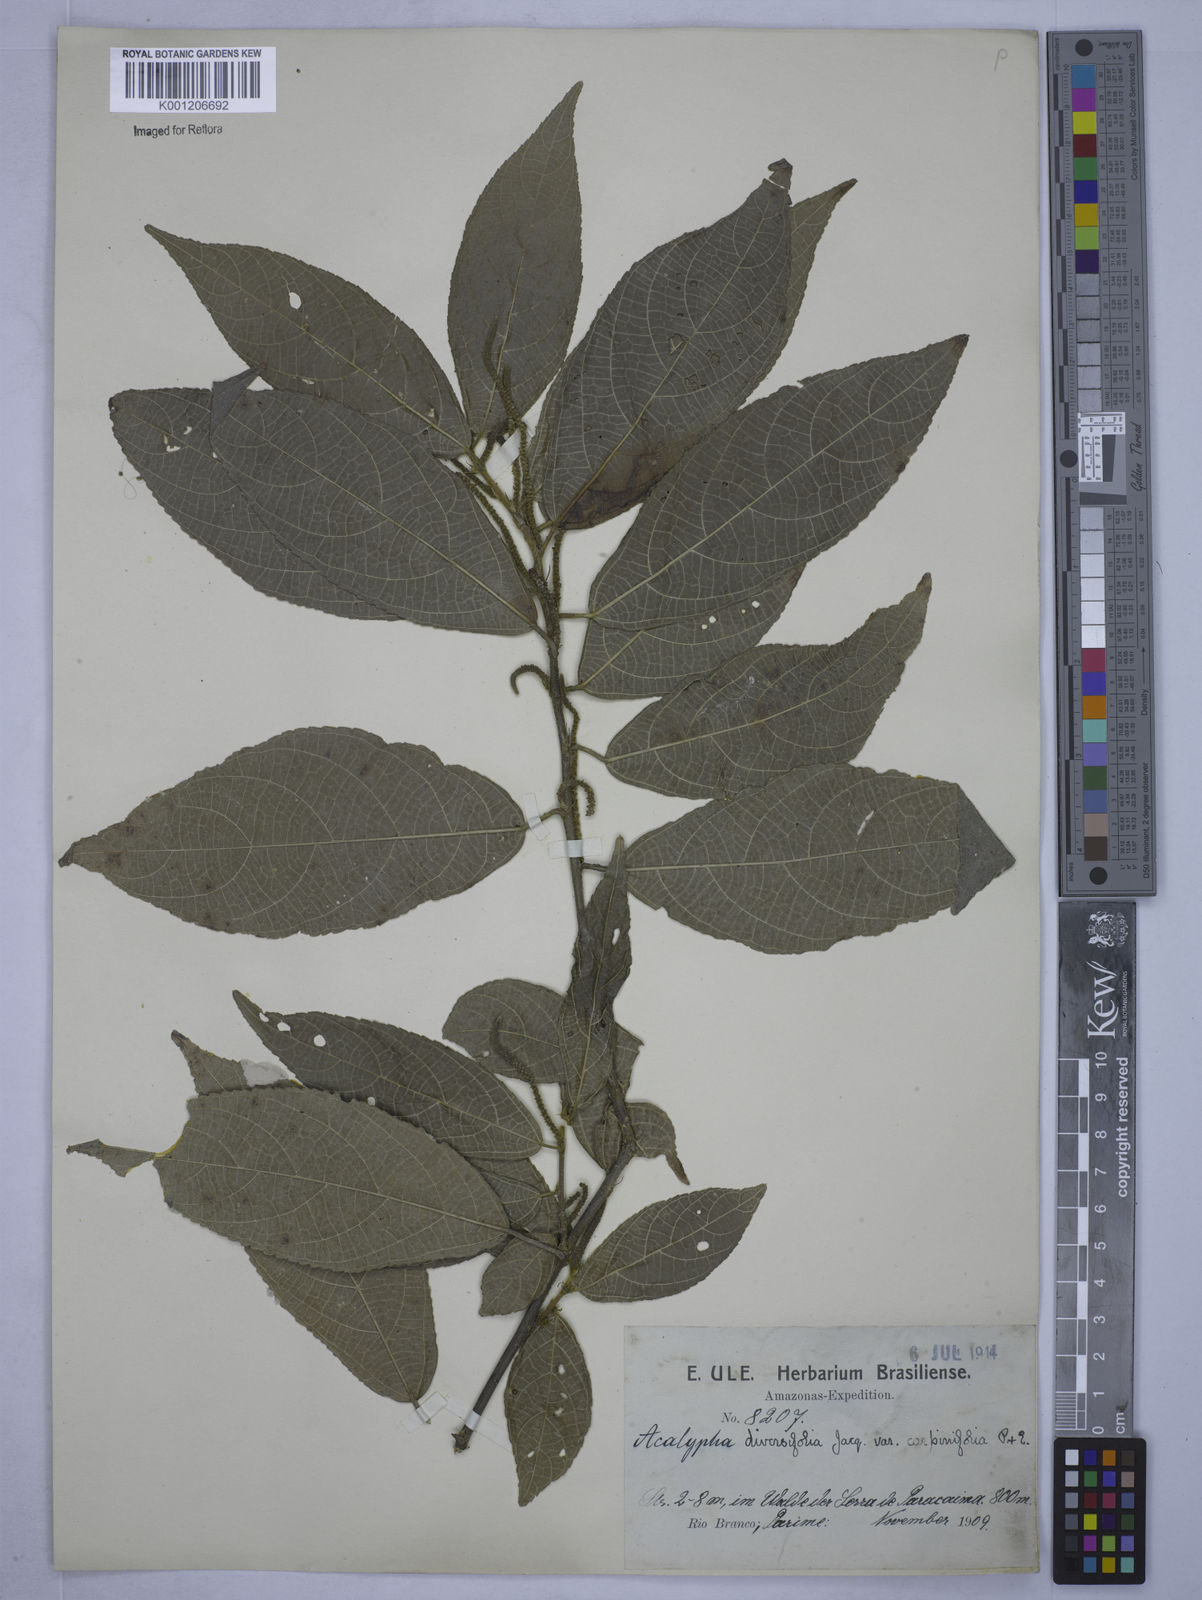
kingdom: Plantae
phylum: Tracheophyta
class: Magnoliopsida
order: Malpighiales
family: Euphorbiaceae
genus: Acalypha
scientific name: Acalypha diversifolia
